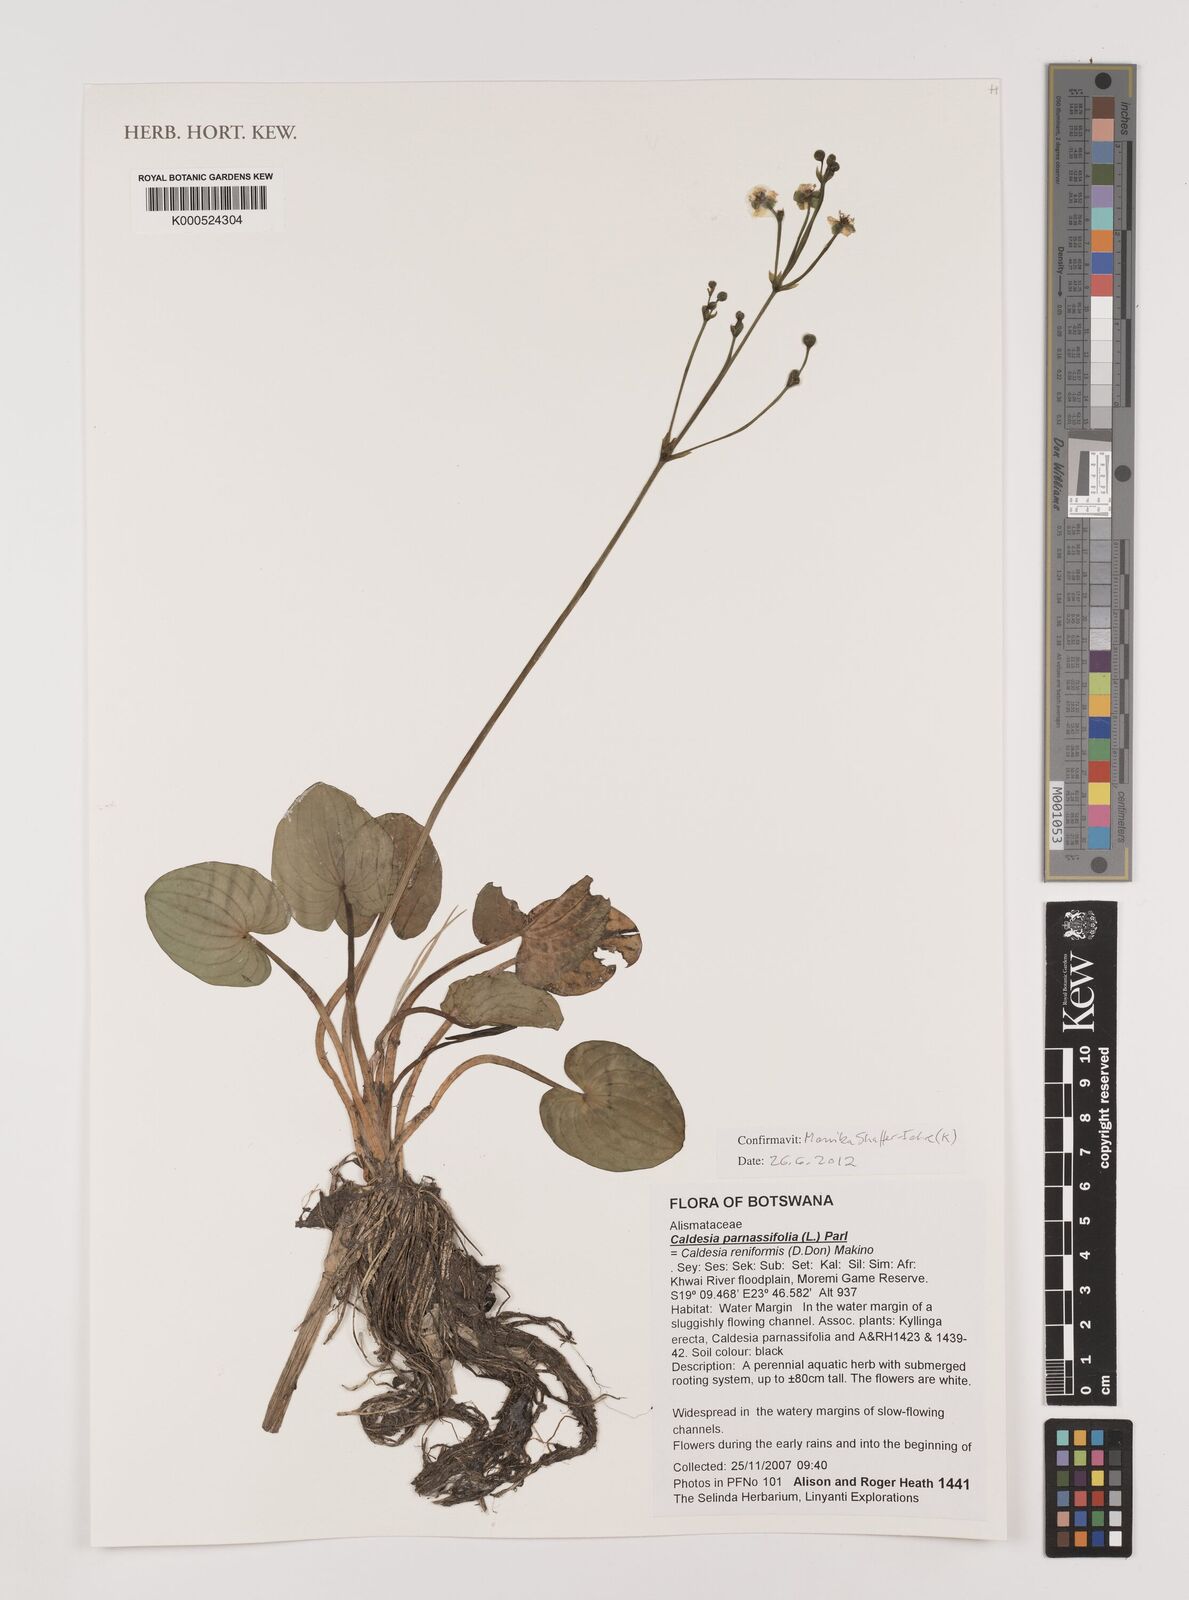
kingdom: Plantae
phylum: Tracheophyta
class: Liliopsida
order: Alismatales
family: Alismataceae
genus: Caldesia
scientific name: Caldesia parnassifolia
